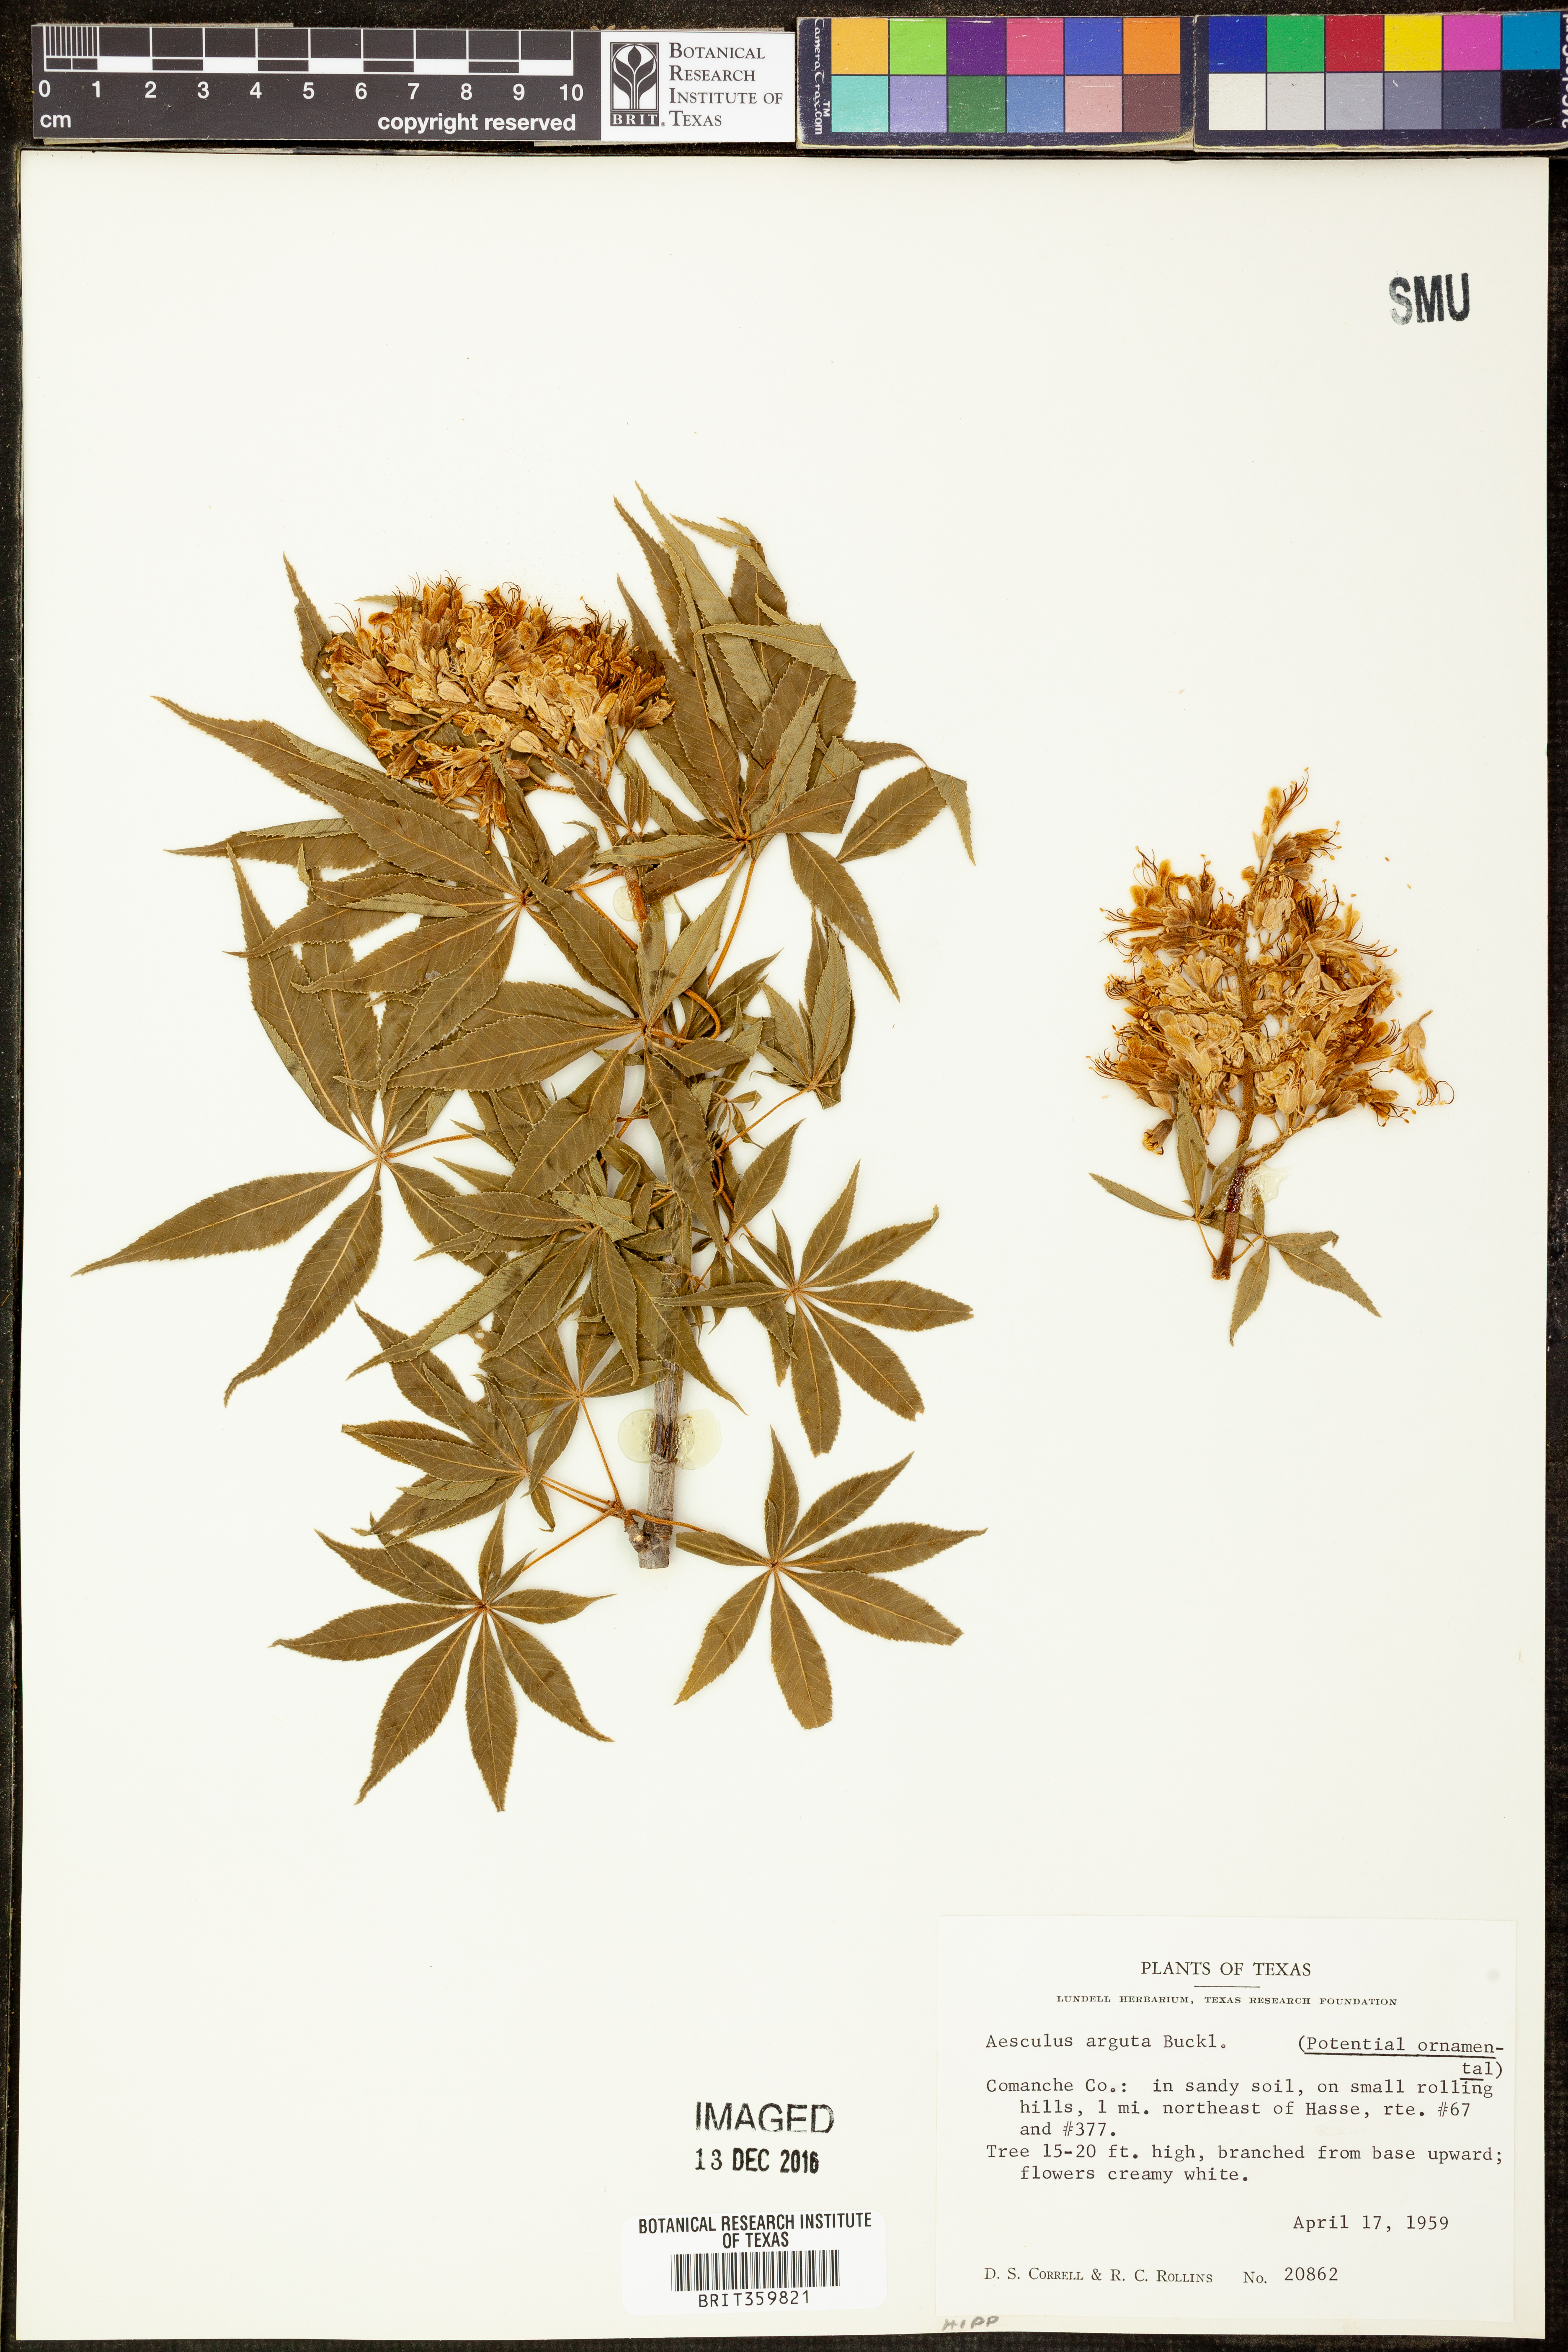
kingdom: Plantae
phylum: Tracheophyta
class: Magnoliopsida
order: Sapindales
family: Sapindaceae
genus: Aesculus
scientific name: Aesculus glabra
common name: Ohio buckeye
